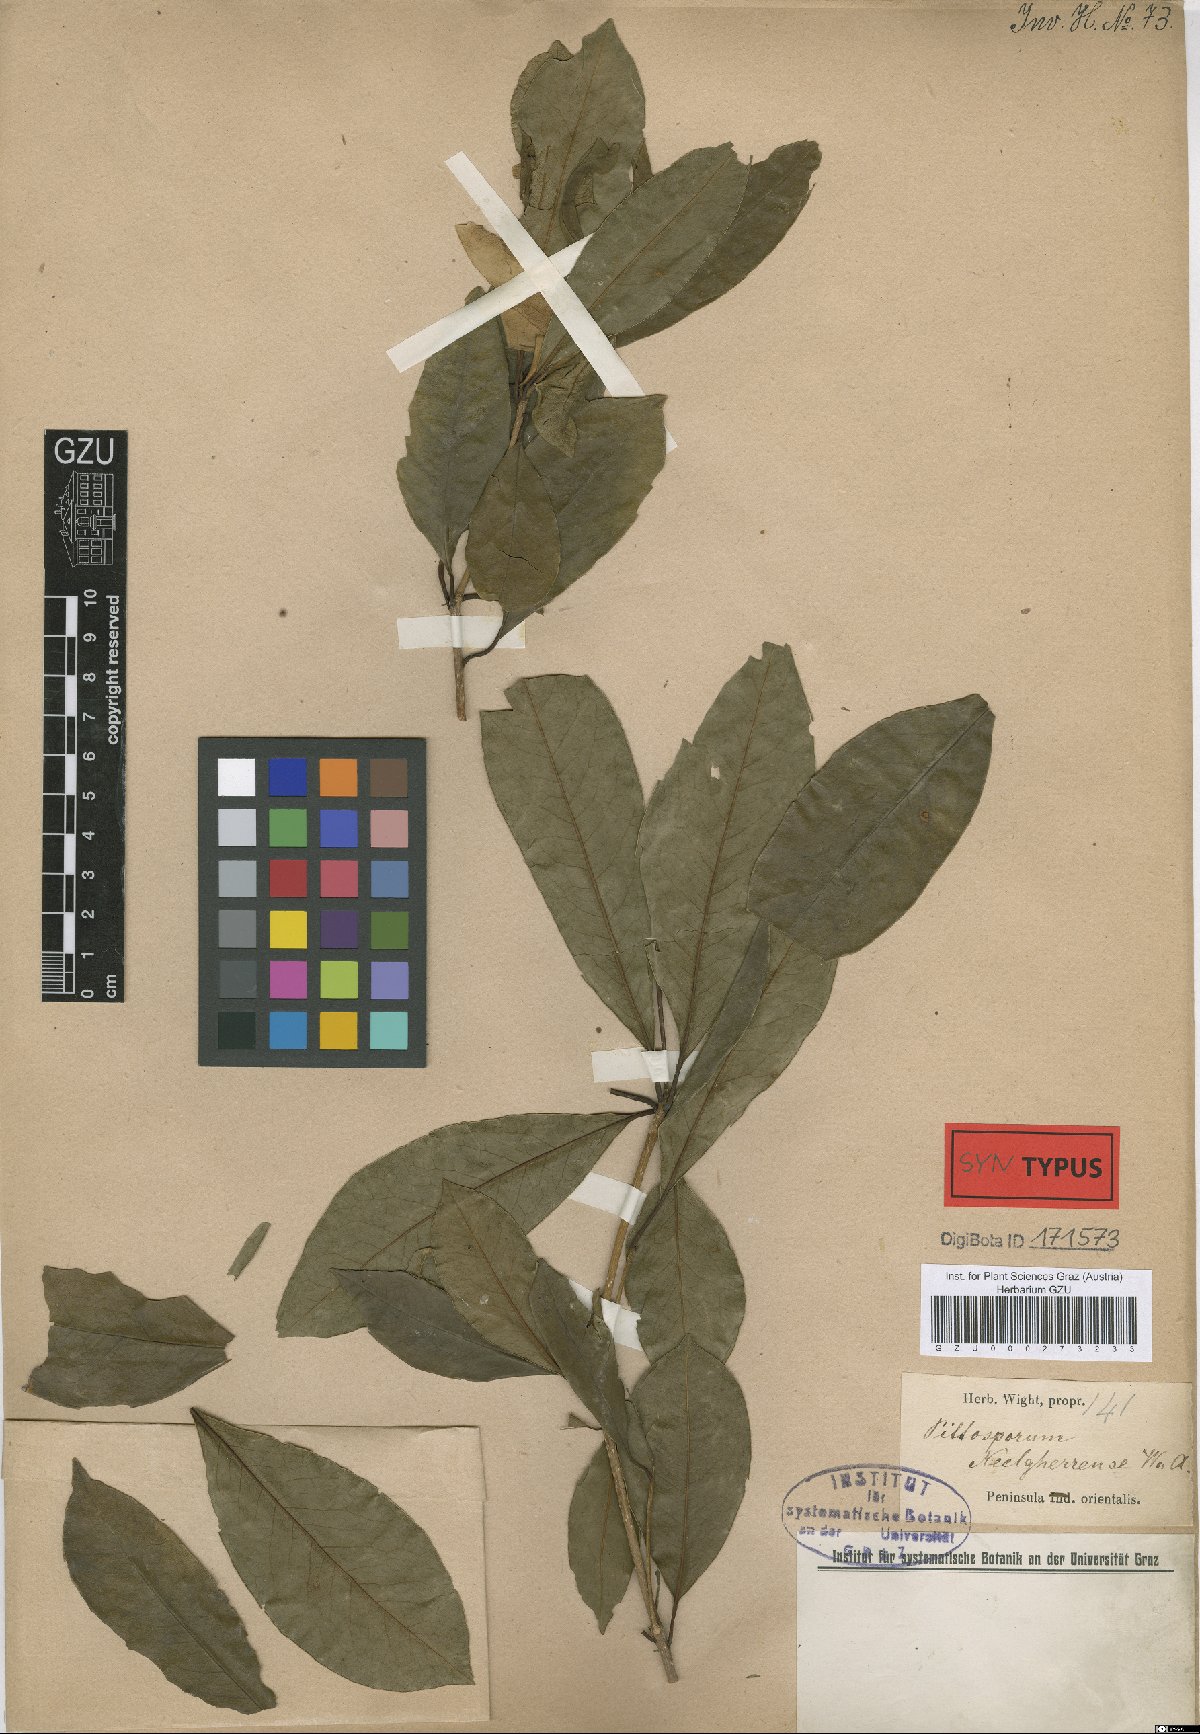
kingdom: Plantae
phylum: Tracheophyta
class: Magnoliopsida
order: Apiales
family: Pittosporaceae
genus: Pittosporum
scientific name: Pittosporum neelgherrense
